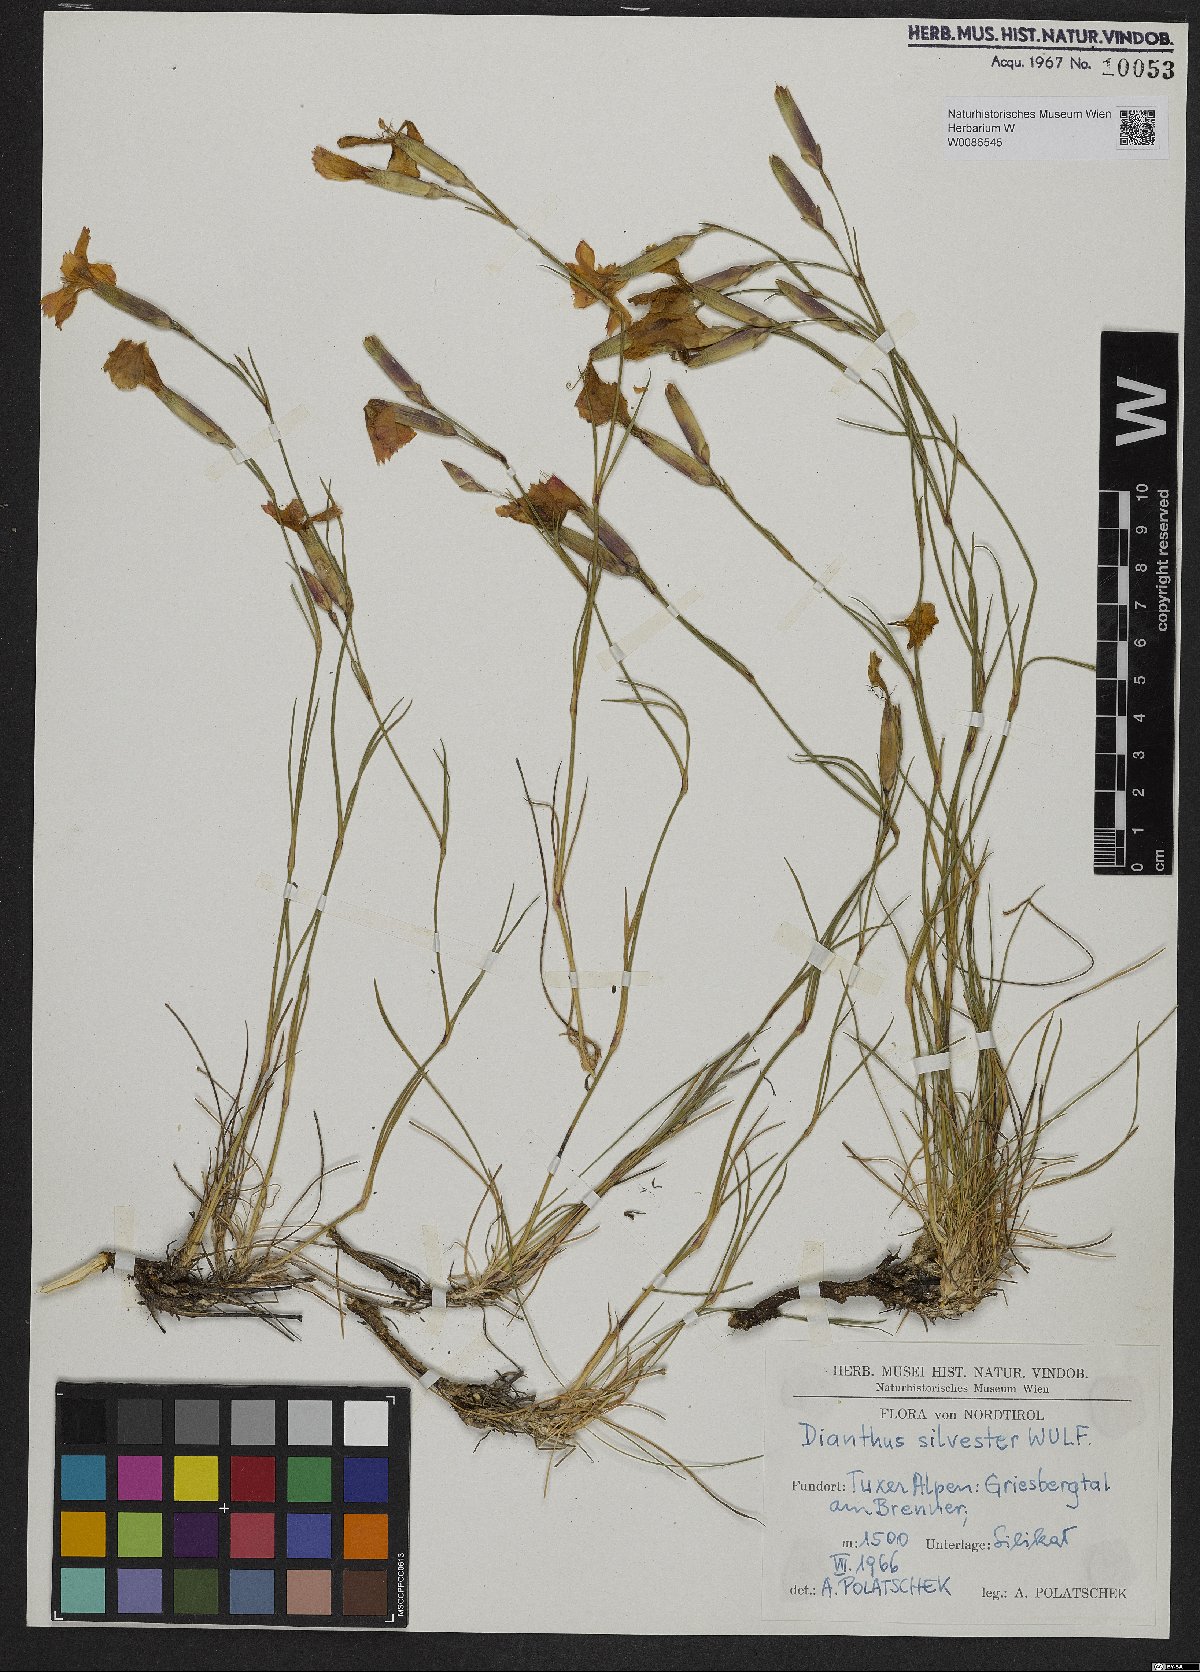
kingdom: Plantae
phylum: Tracheophyta
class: Magnoliopsida
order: Caryophyllales
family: Caryophyllaceae
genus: Dianthus
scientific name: Dianthus sylvestris
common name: Wood pink
